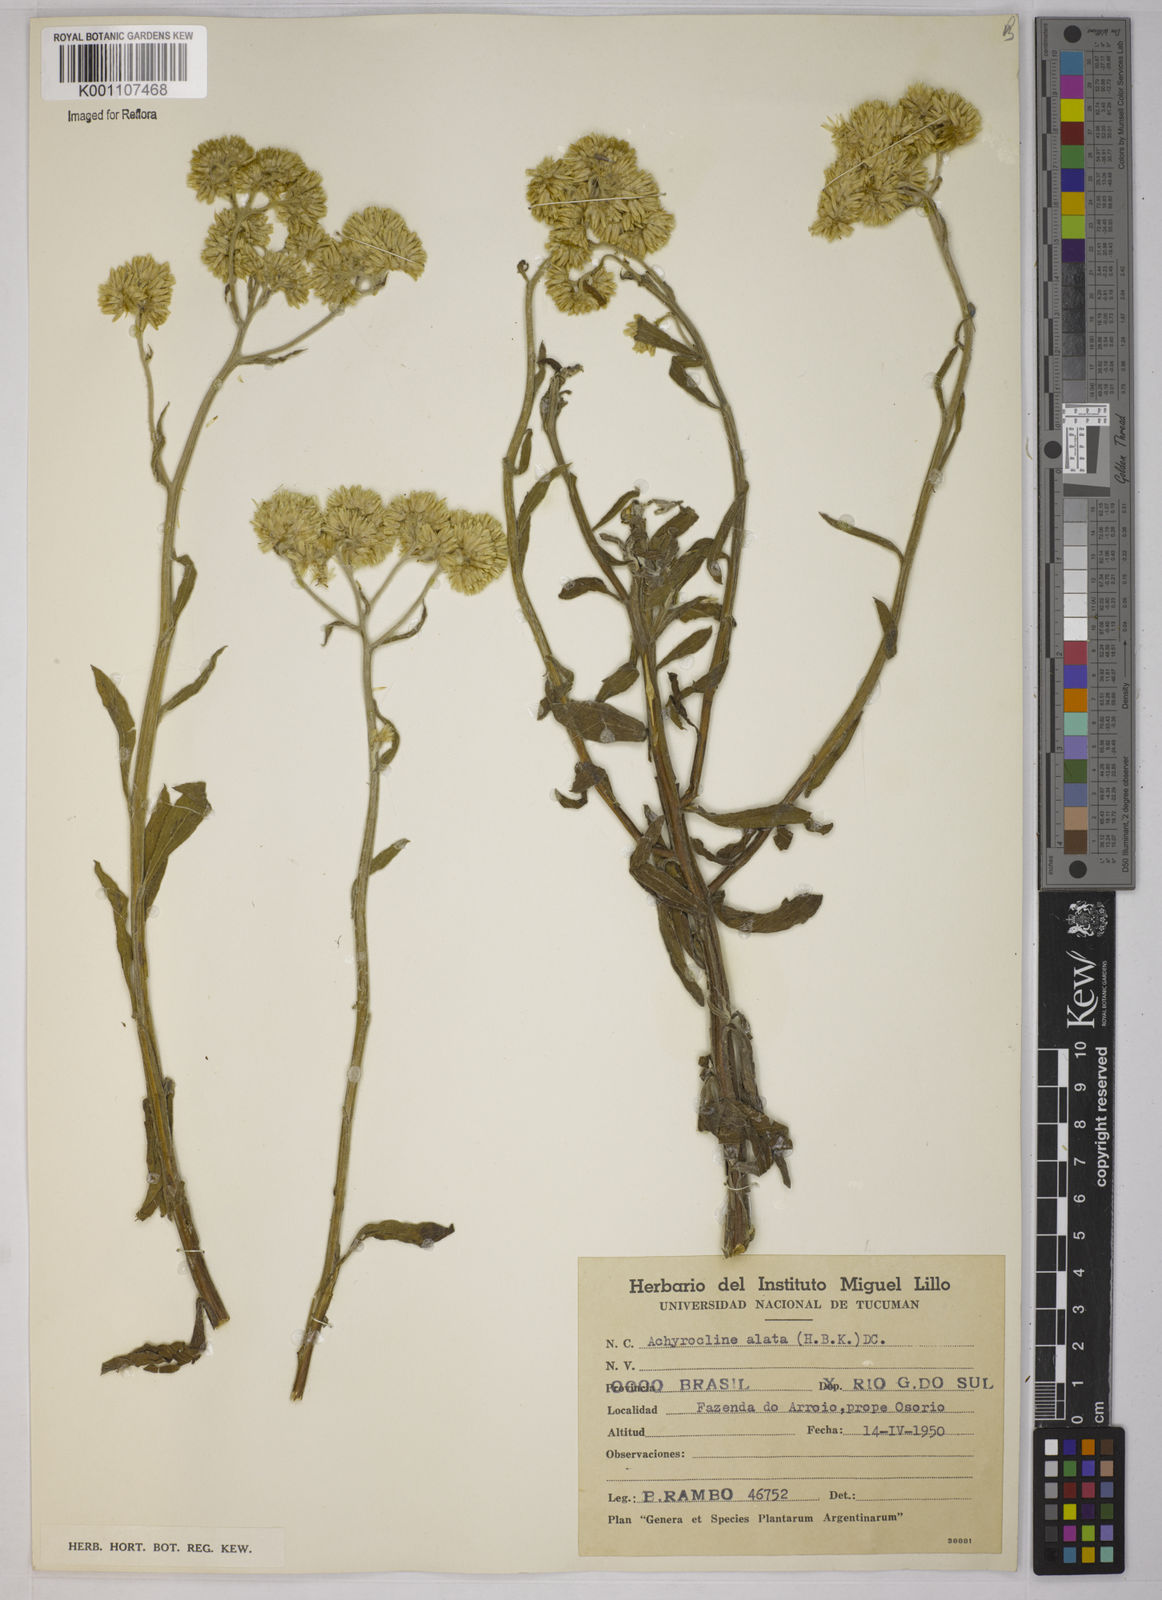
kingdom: Plantae
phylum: Tracheophyta
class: Magnoliopsida
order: Asterales
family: Asteraceae
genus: Achyrocline
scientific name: Achyrocline alata
